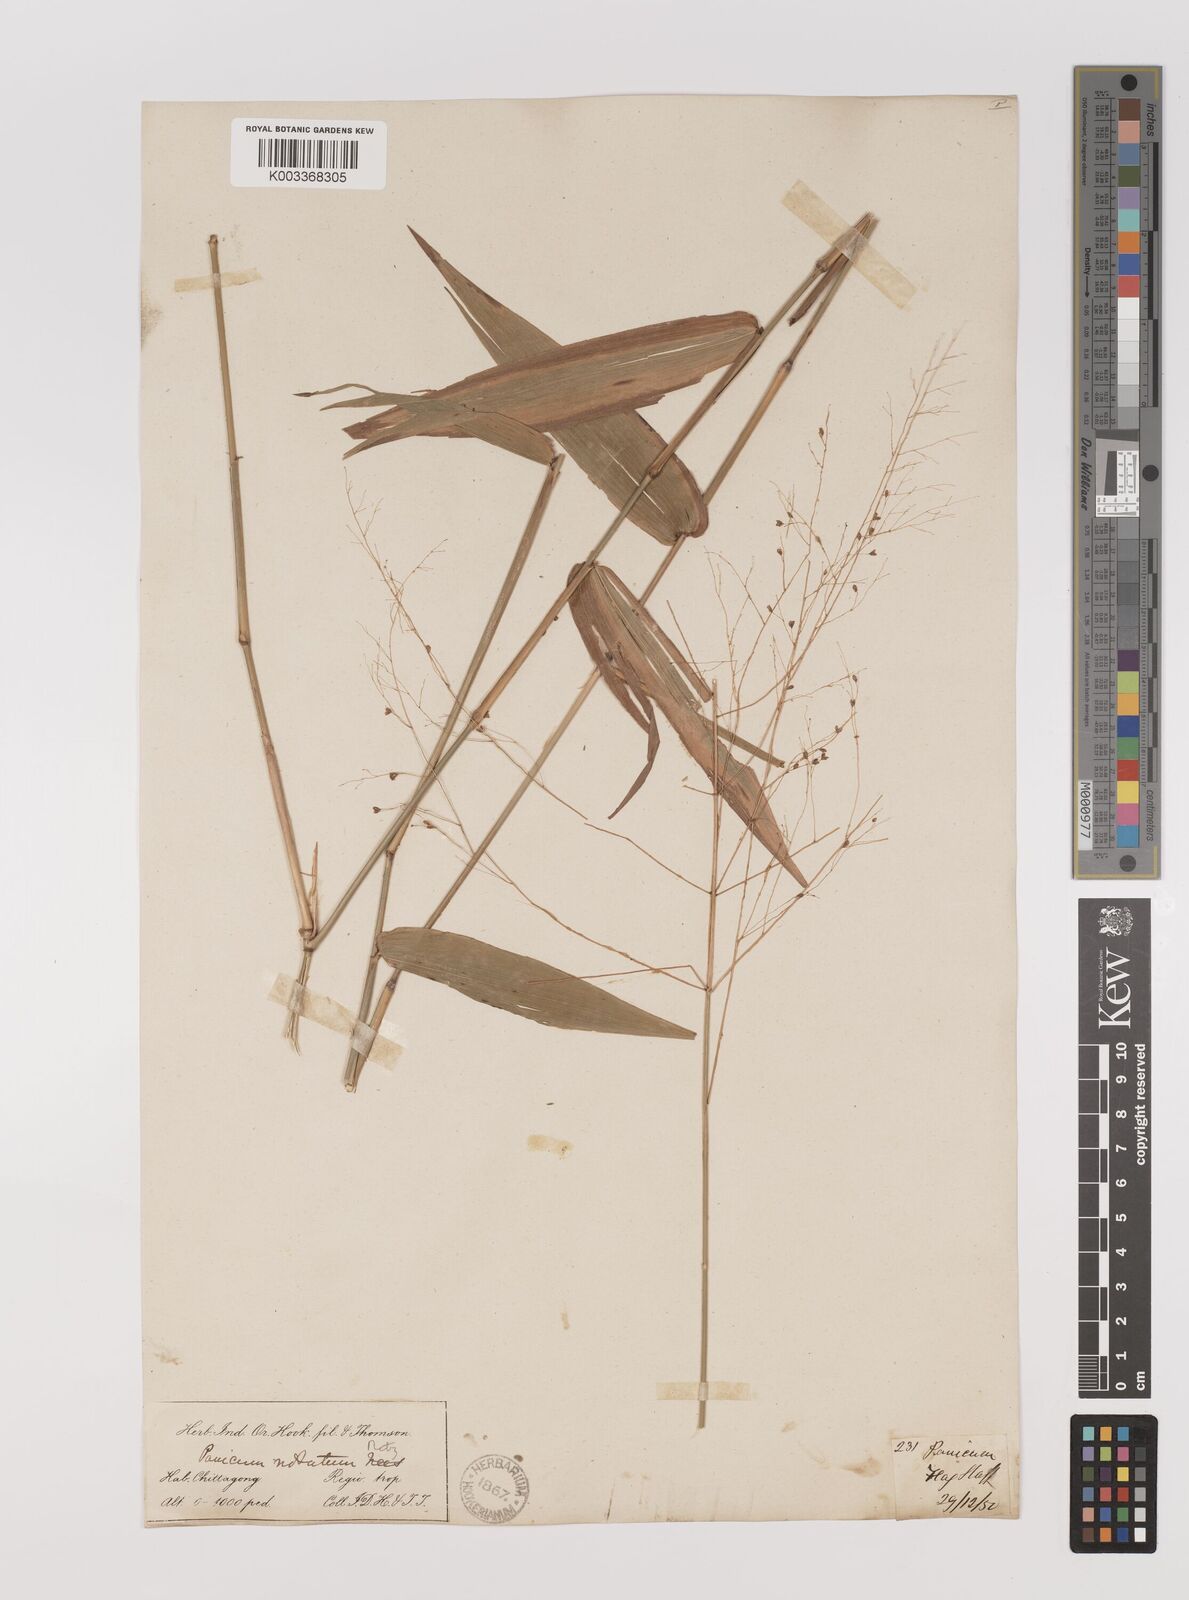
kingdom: Plantae
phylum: Tracheophyta
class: Liliopsida
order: Poales
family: Poaceae
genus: Panicum
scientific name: Panicum notatum
